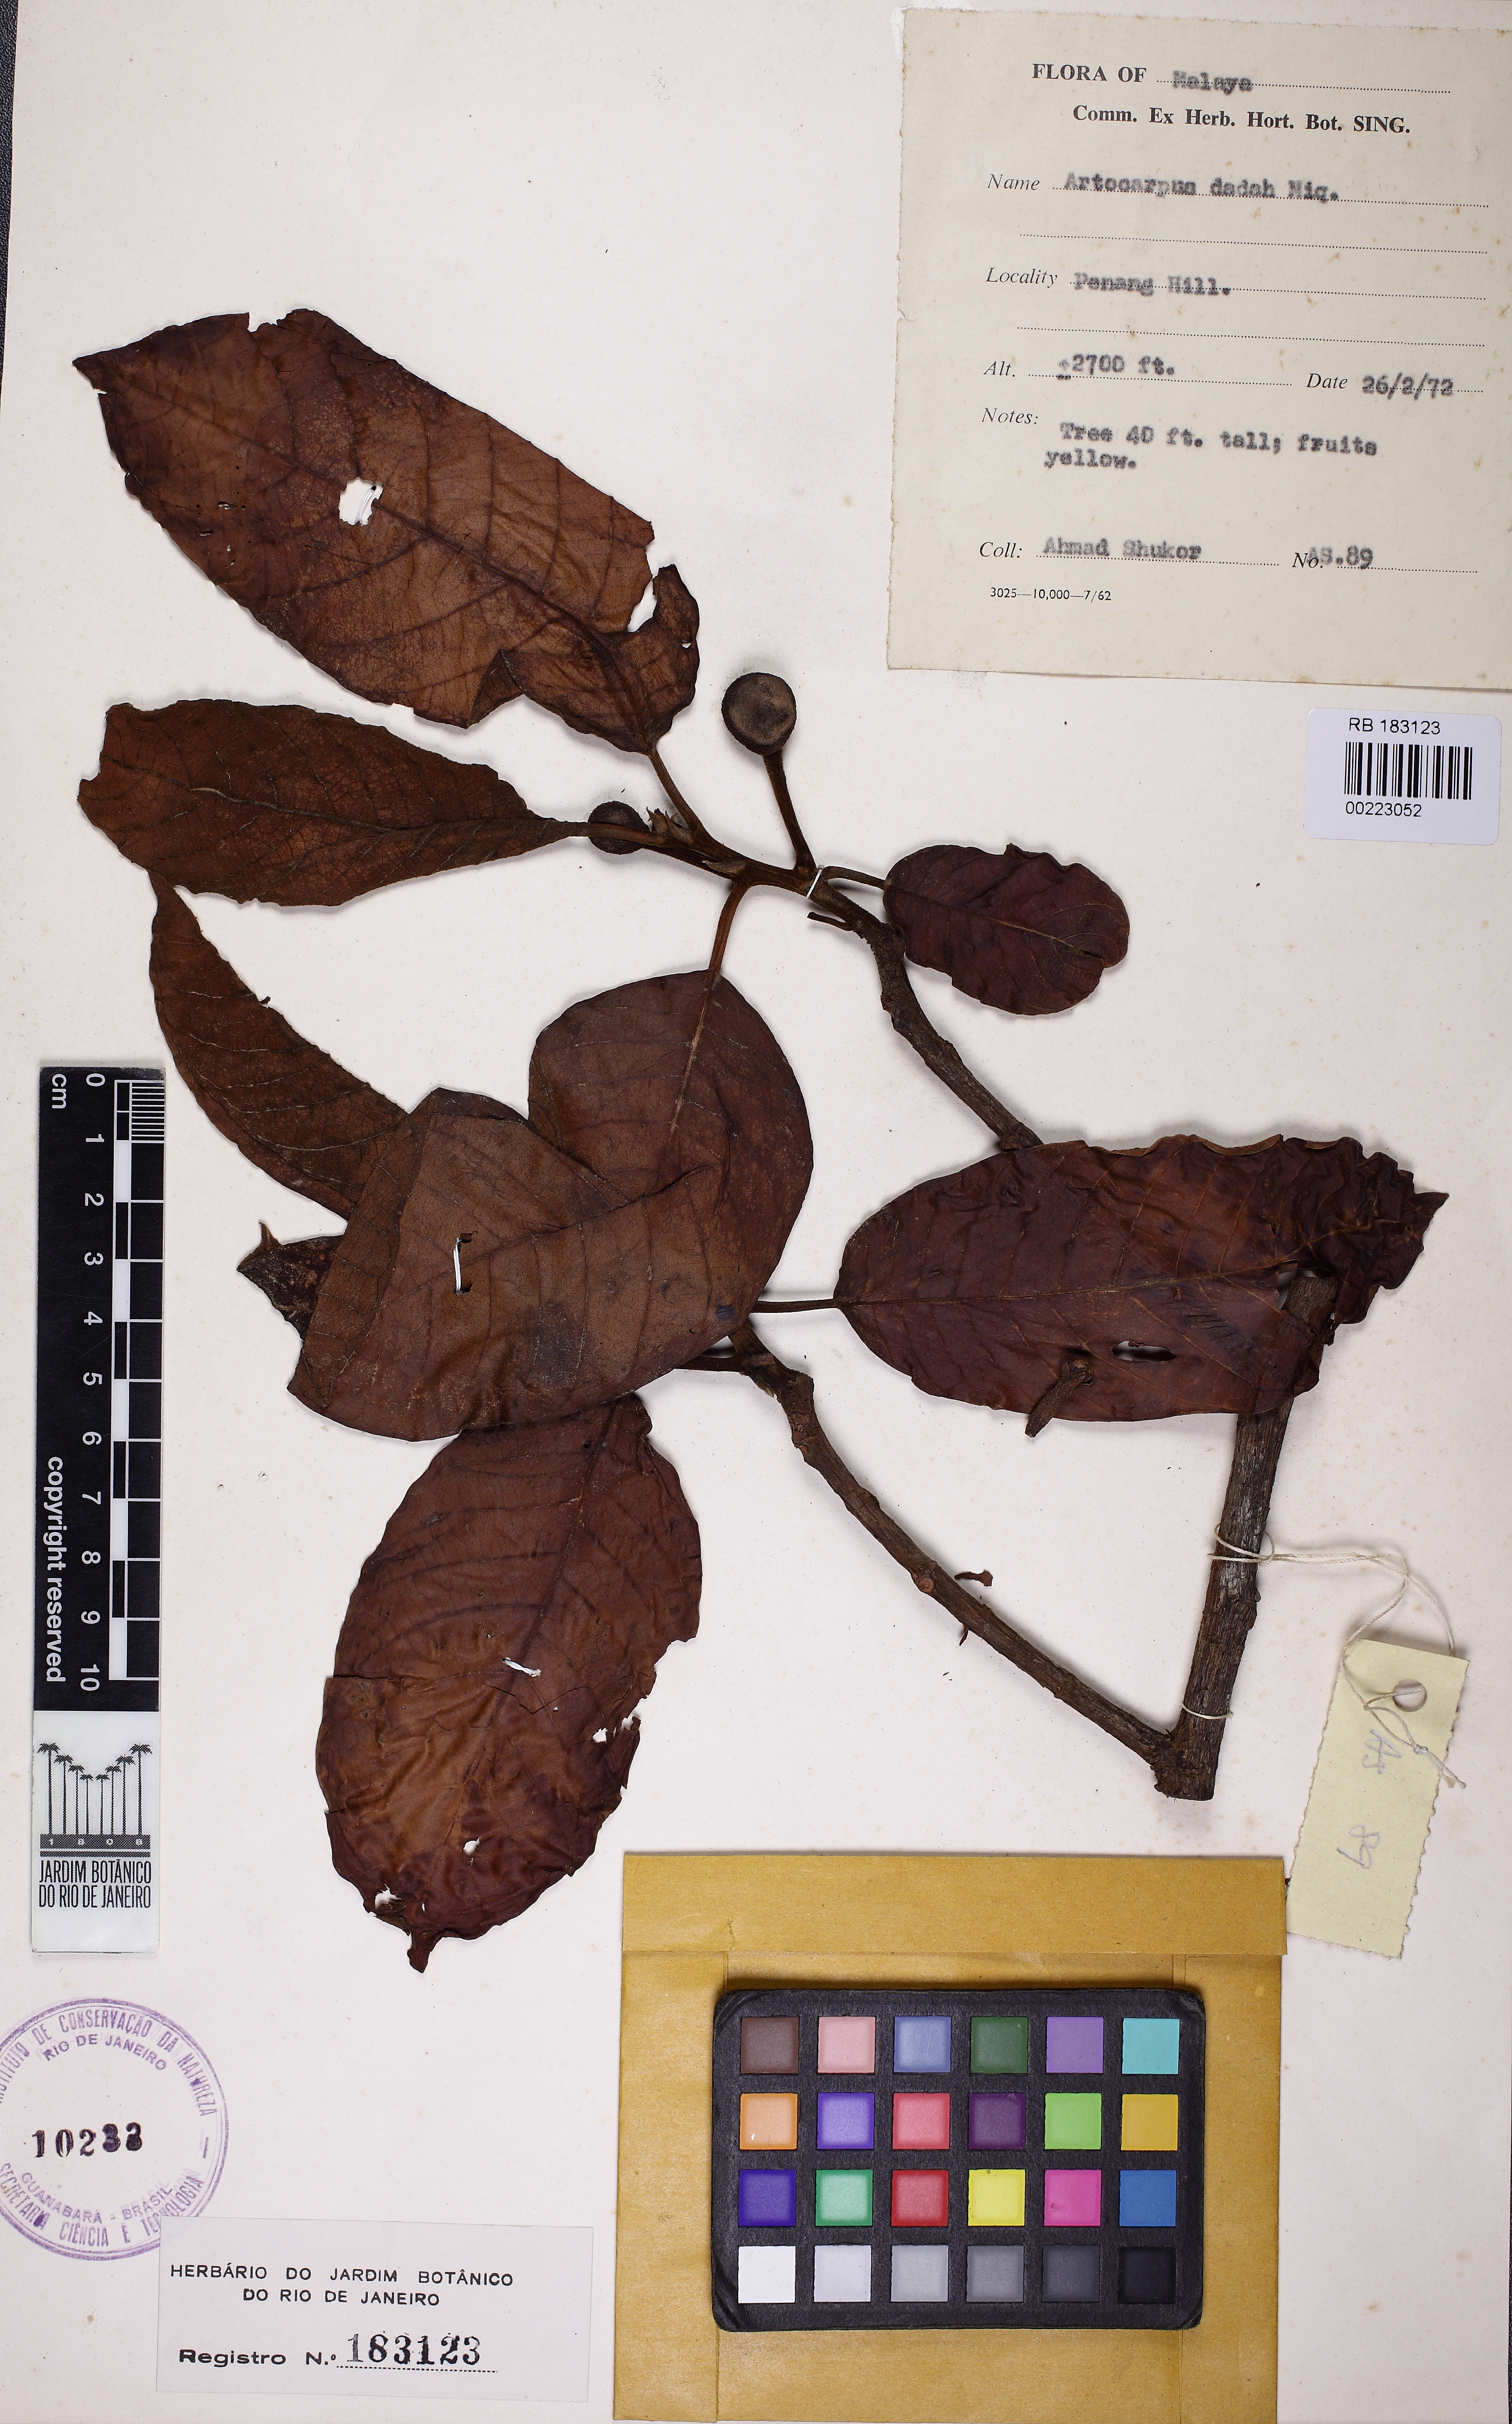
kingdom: Plantae
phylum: Tracheophyta
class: Magnoliopsida
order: Rosales
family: Moraceae
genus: Artocarpus
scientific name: Artocarpus lacucha
